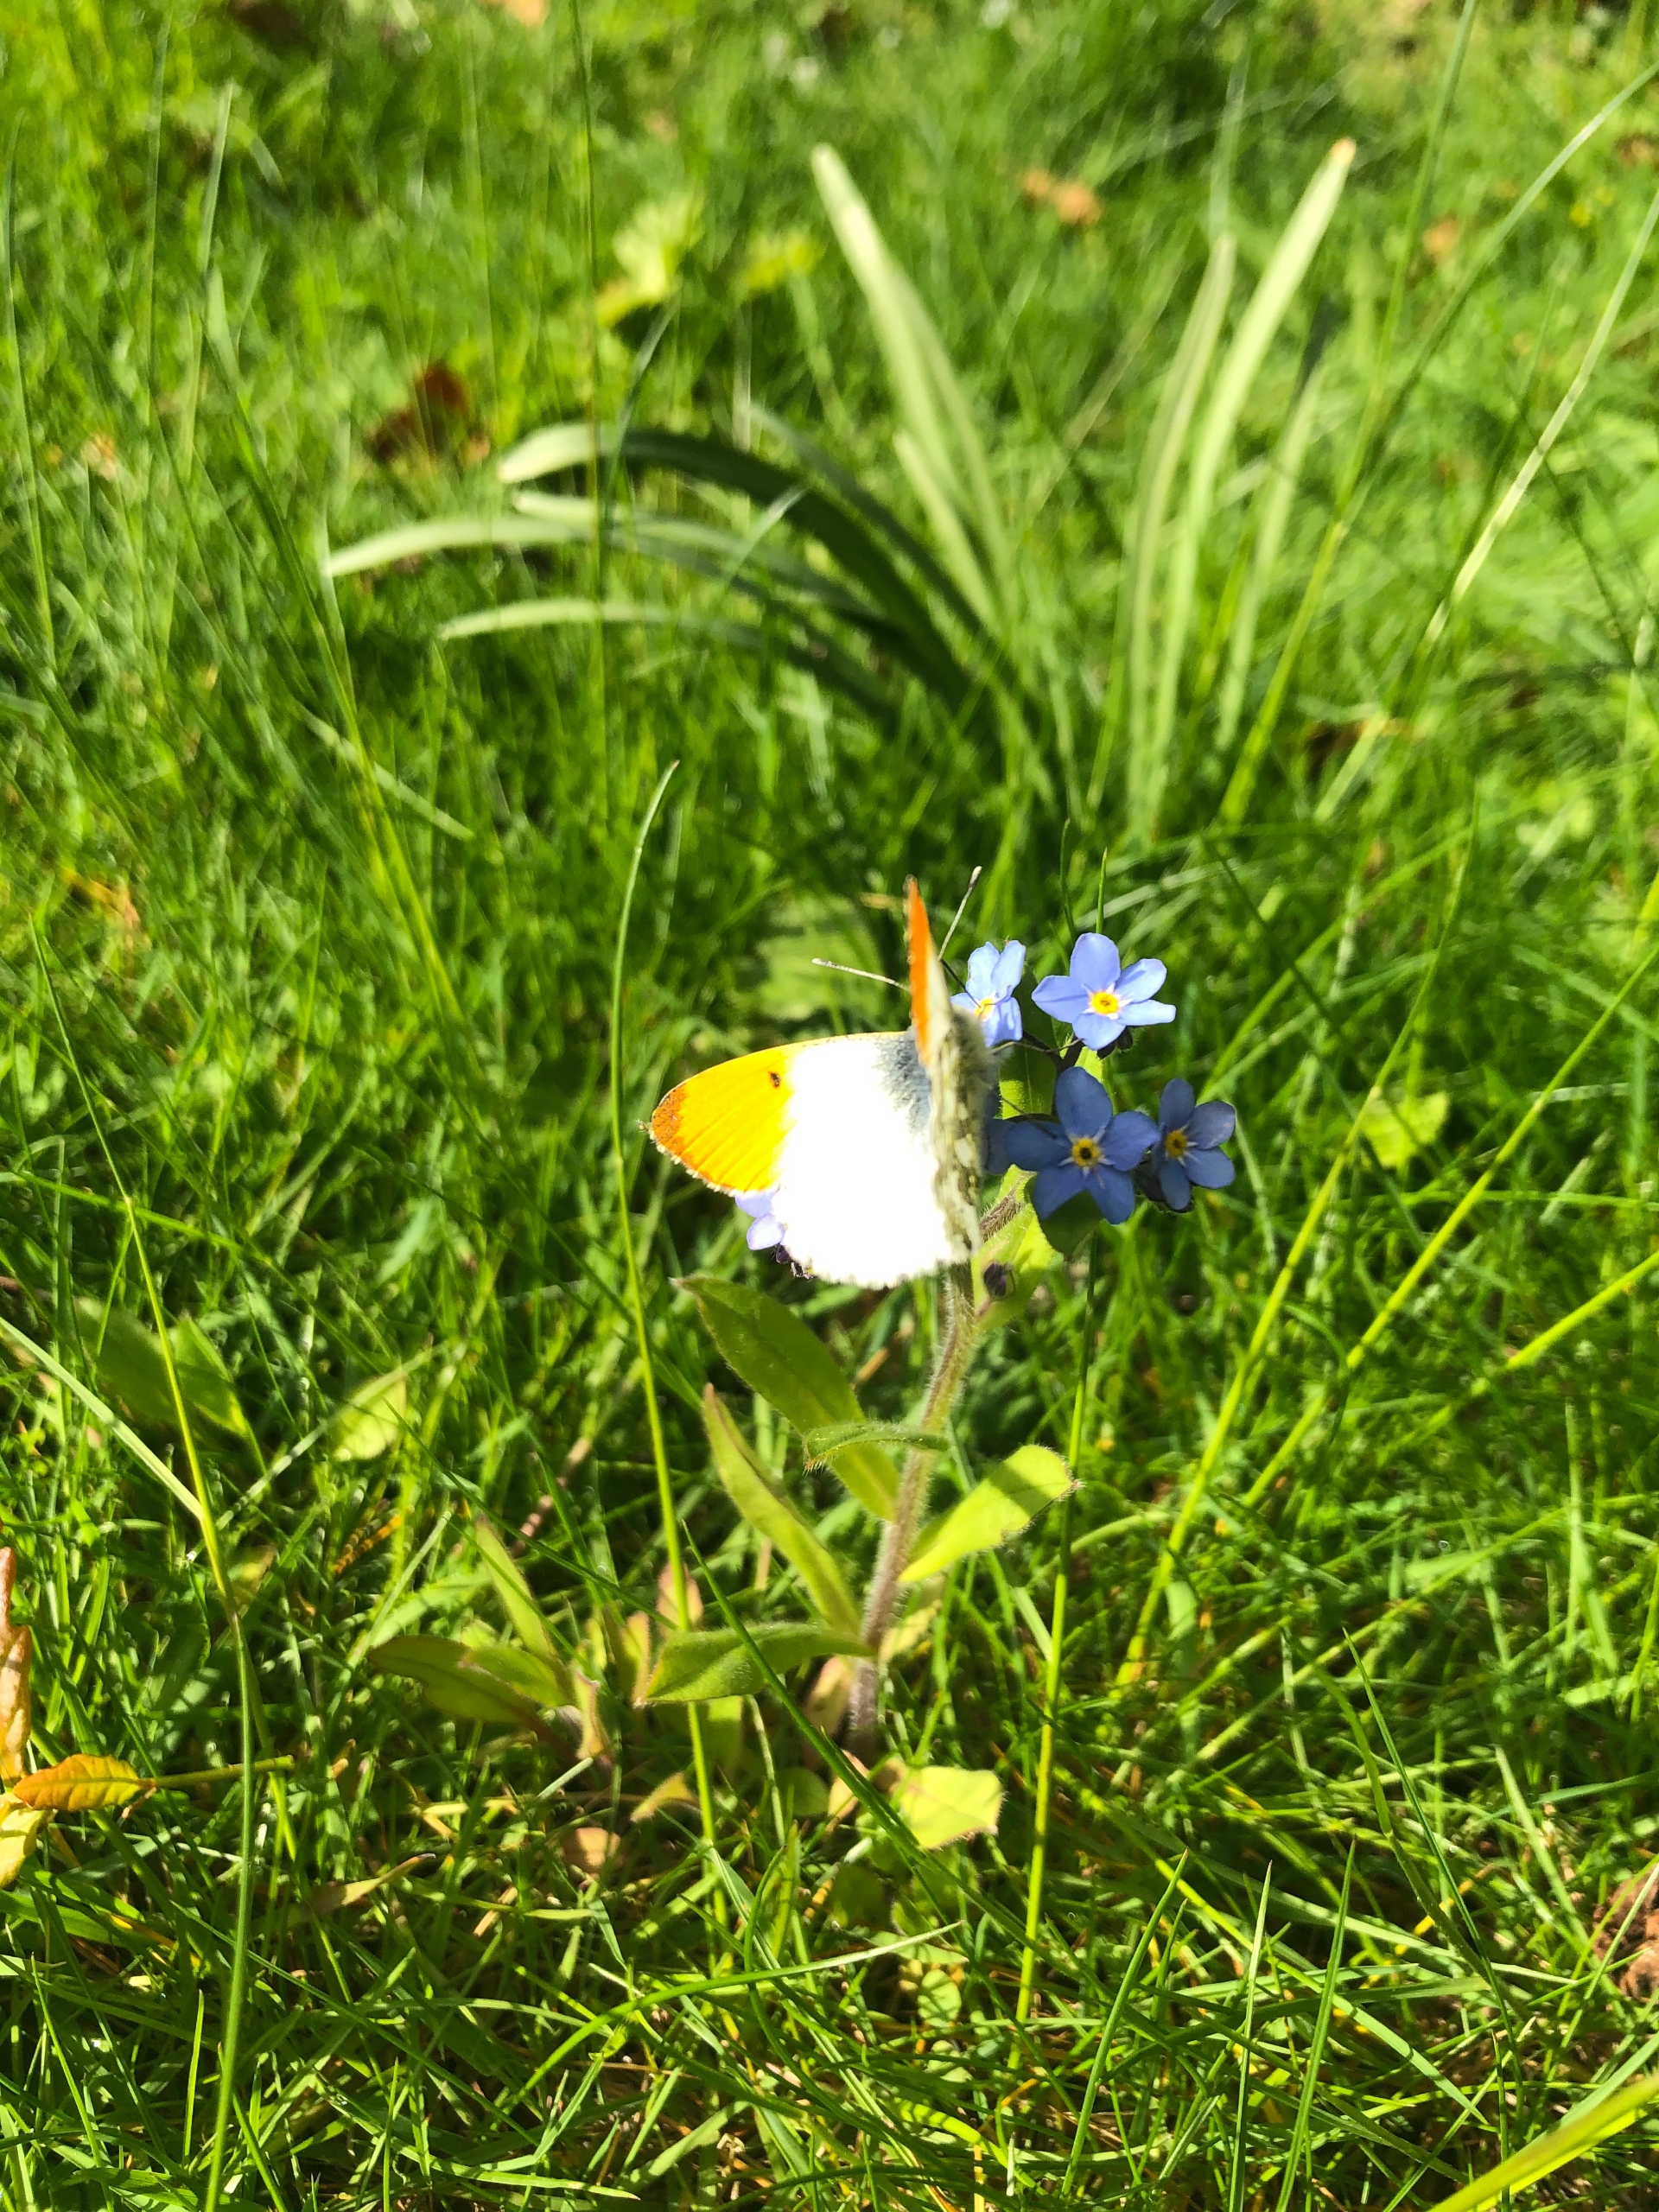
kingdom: Animalia
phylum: Arthropoda
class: Insecta
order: Lepidoptera
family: Pieridae
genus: Anthocharis
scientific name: Anthocharis cardamines
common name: Aurora
